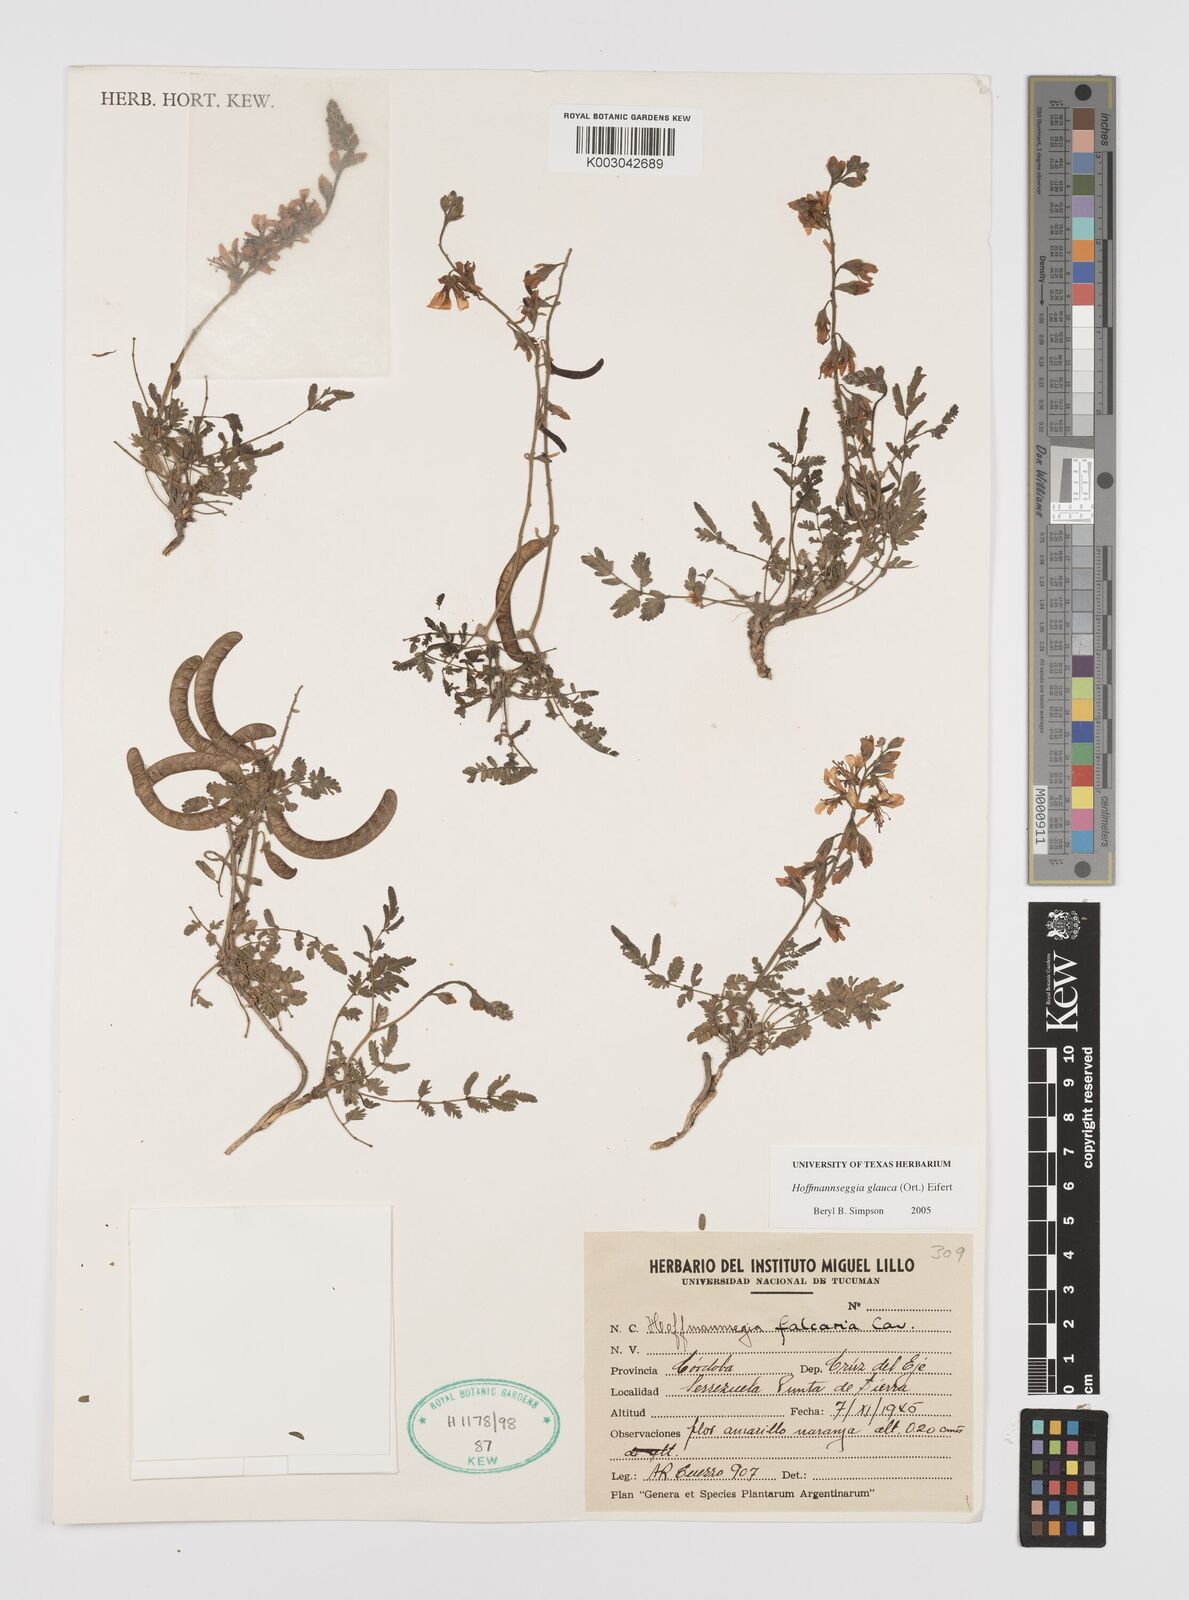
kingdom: Plantae
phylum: Tracheophyta
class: Magnoliopsida
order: Fabales
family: Fabaceae
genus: Hoffmannseggia
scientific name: Hoffmannseggia glauca
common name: Pignut
